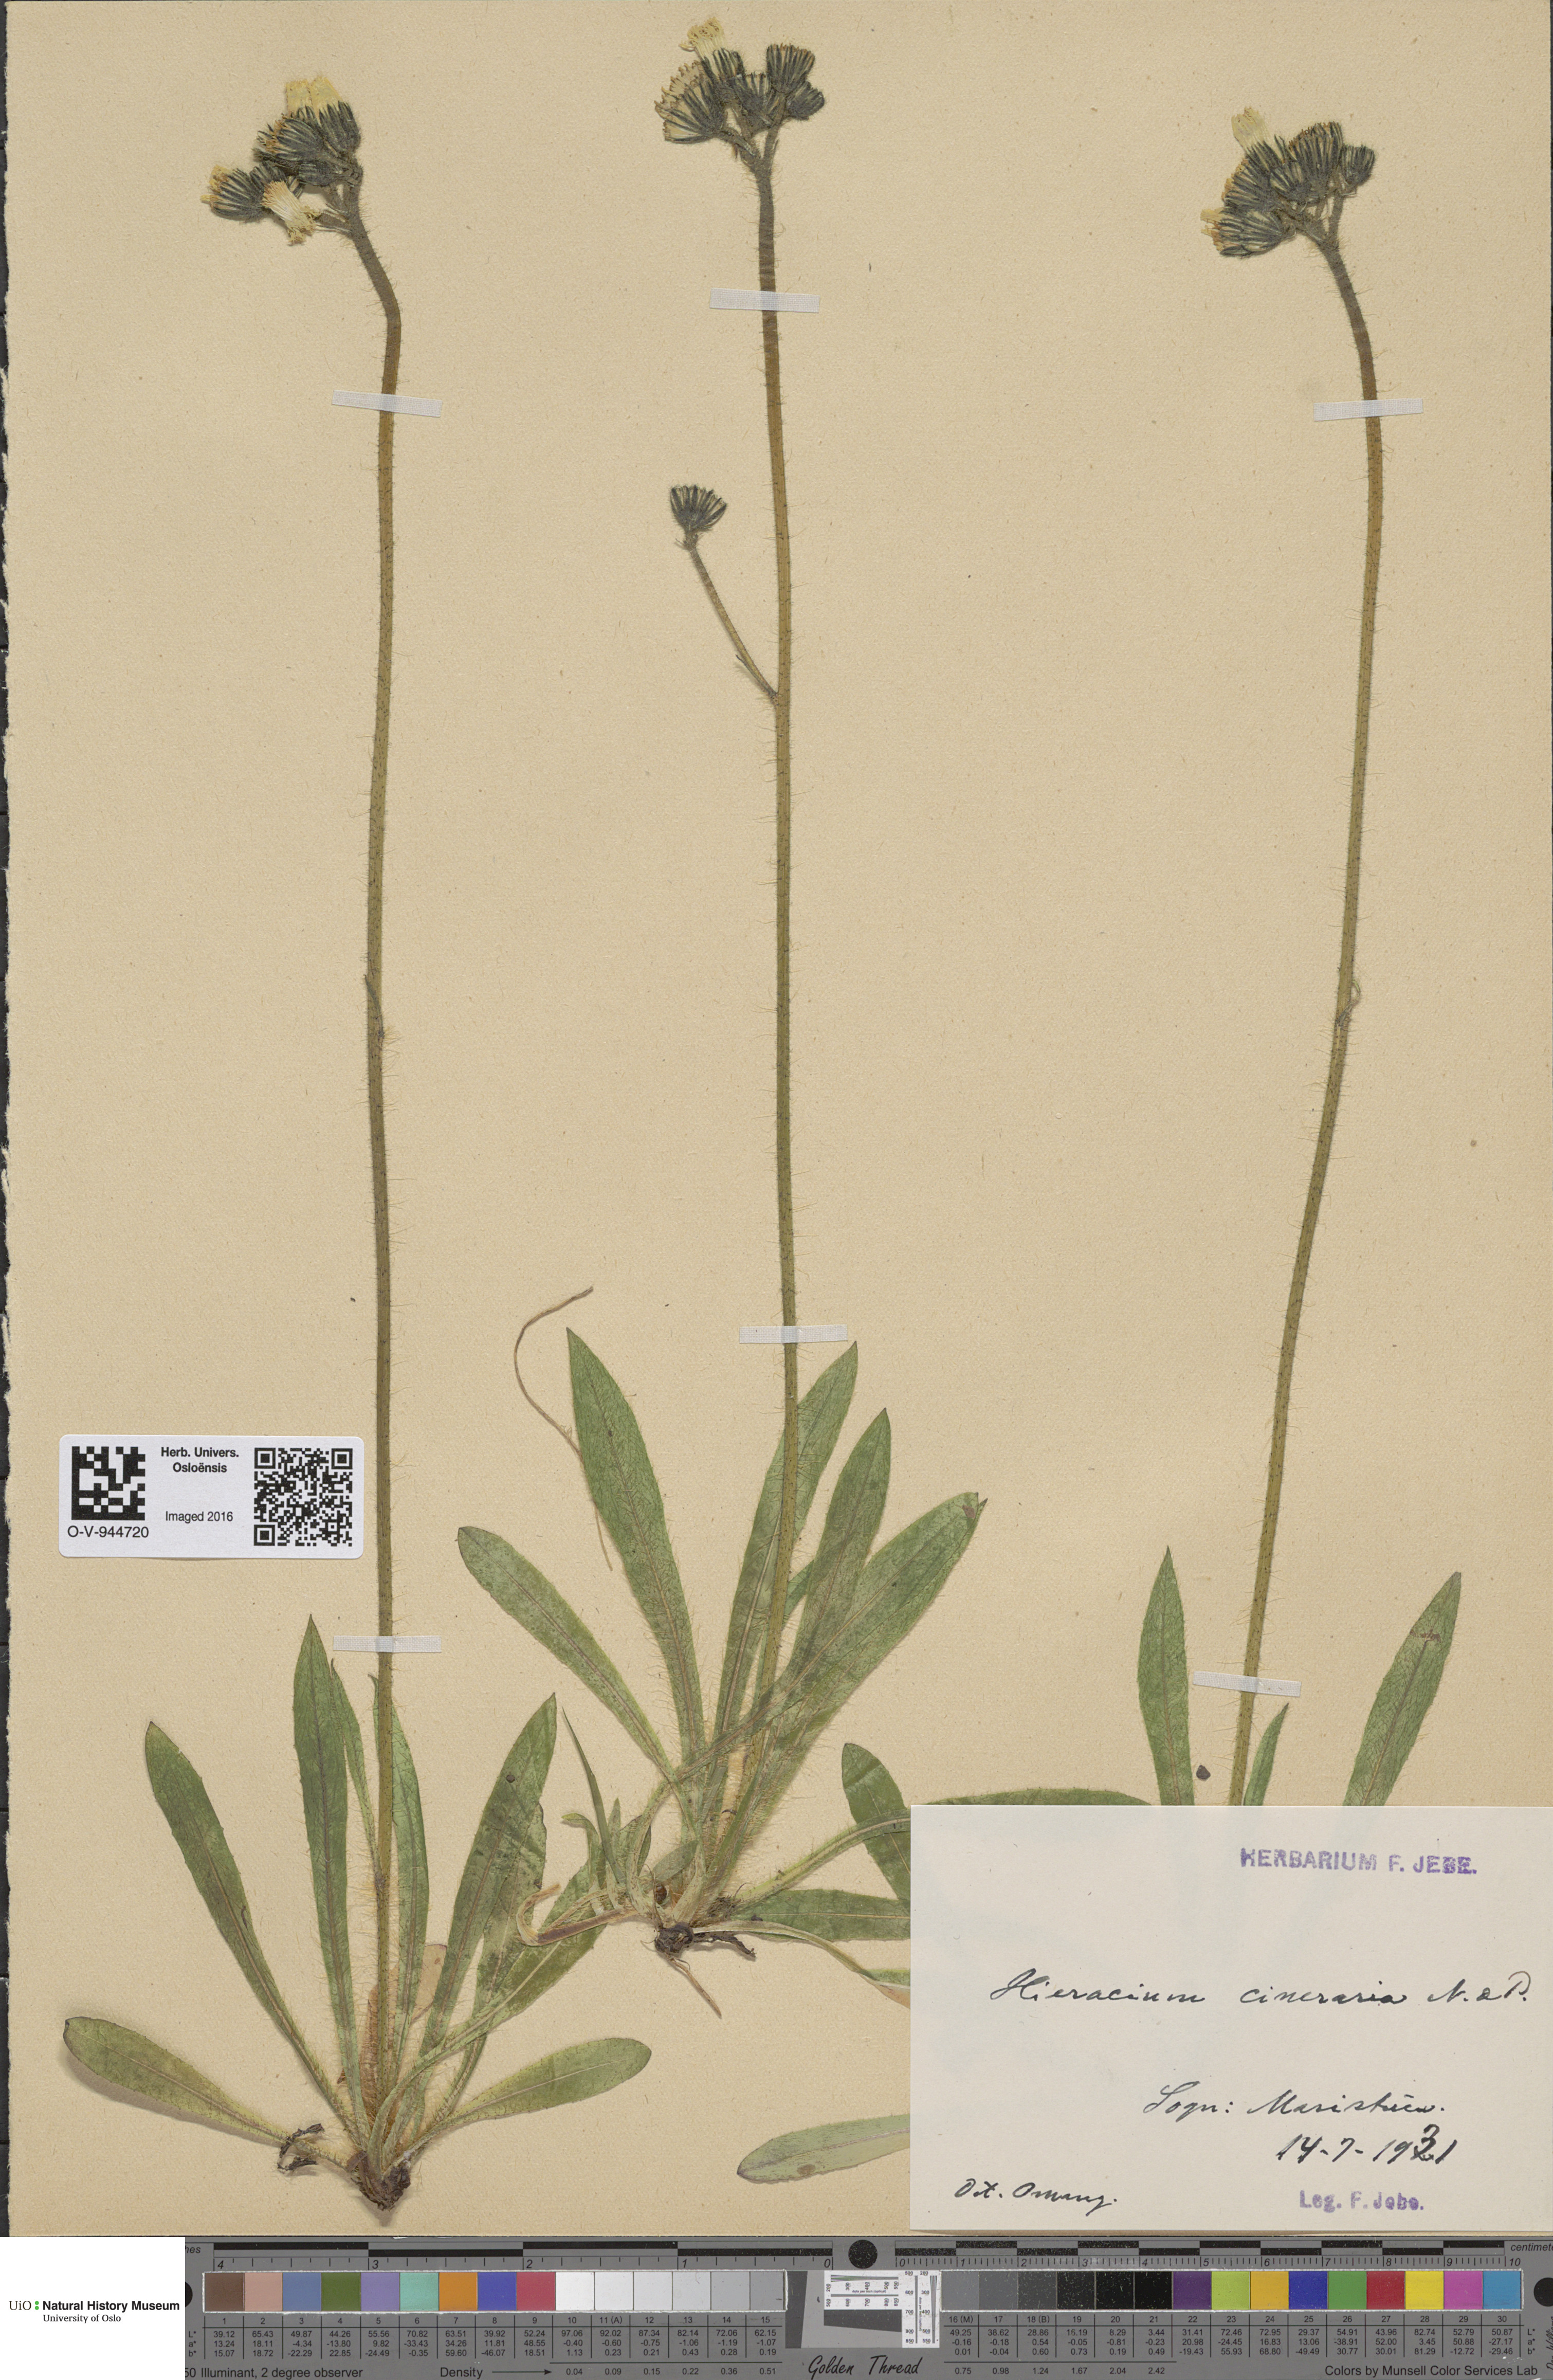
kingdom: Plantae
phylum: Tracheophyta
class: Magnoliopsida
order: Asterales
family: Asteraceae
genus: Pilosella
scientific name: Pilosella moechiadia
